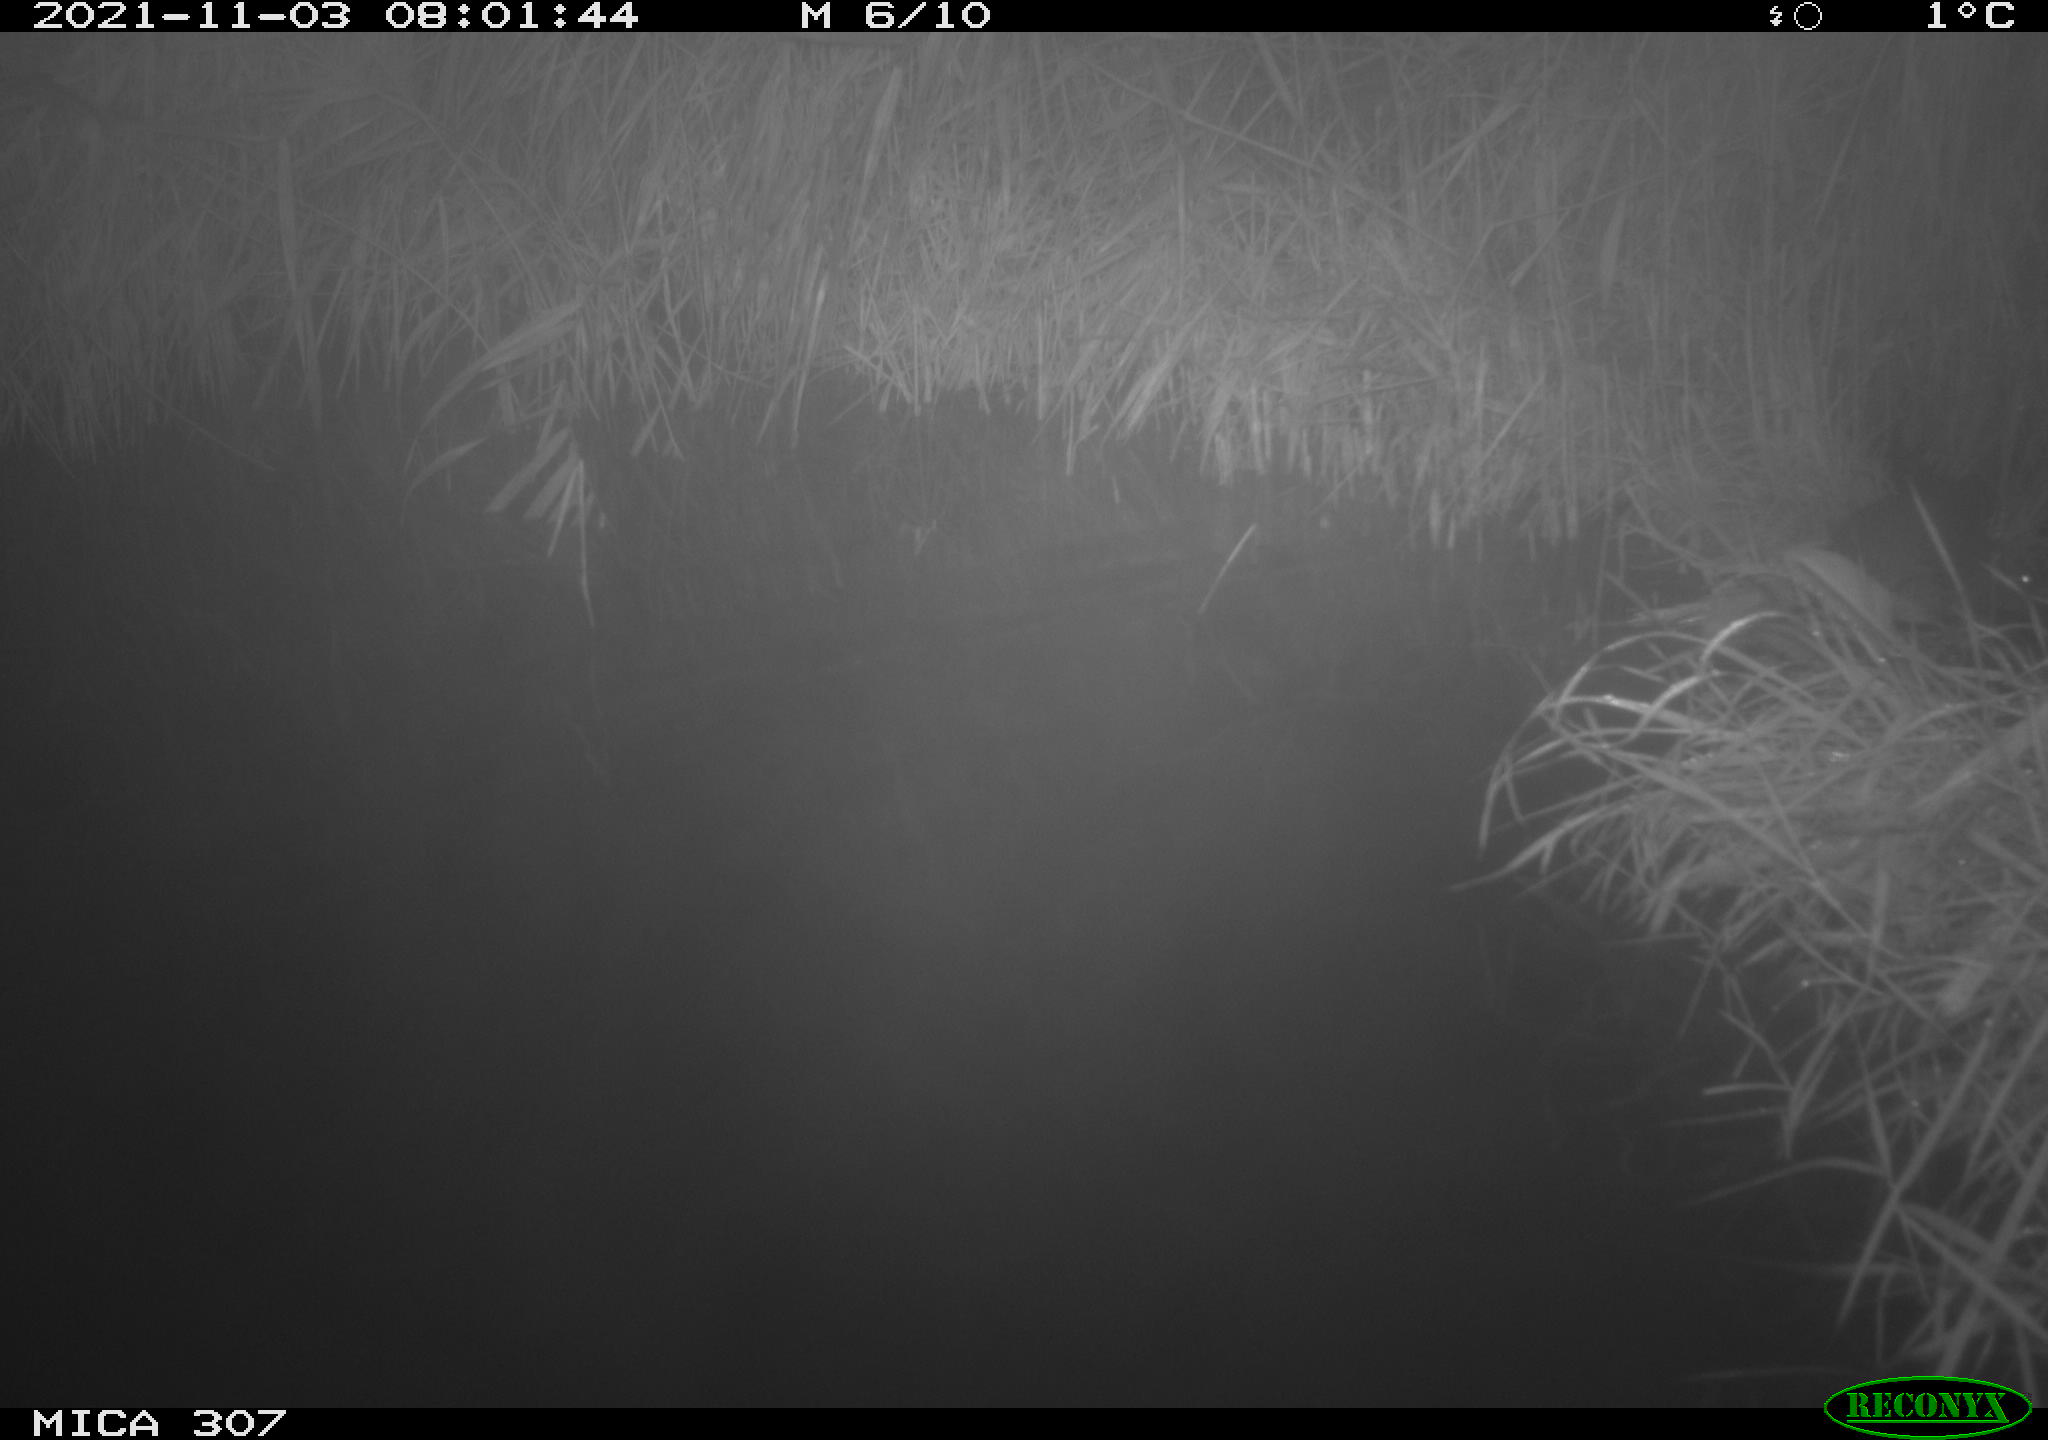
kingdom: Animalia
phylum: Chordata
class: Mammalia
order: Rodentia
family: Muridae
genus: Rattus
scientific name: Rattus norvegicus
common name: Brown rat
